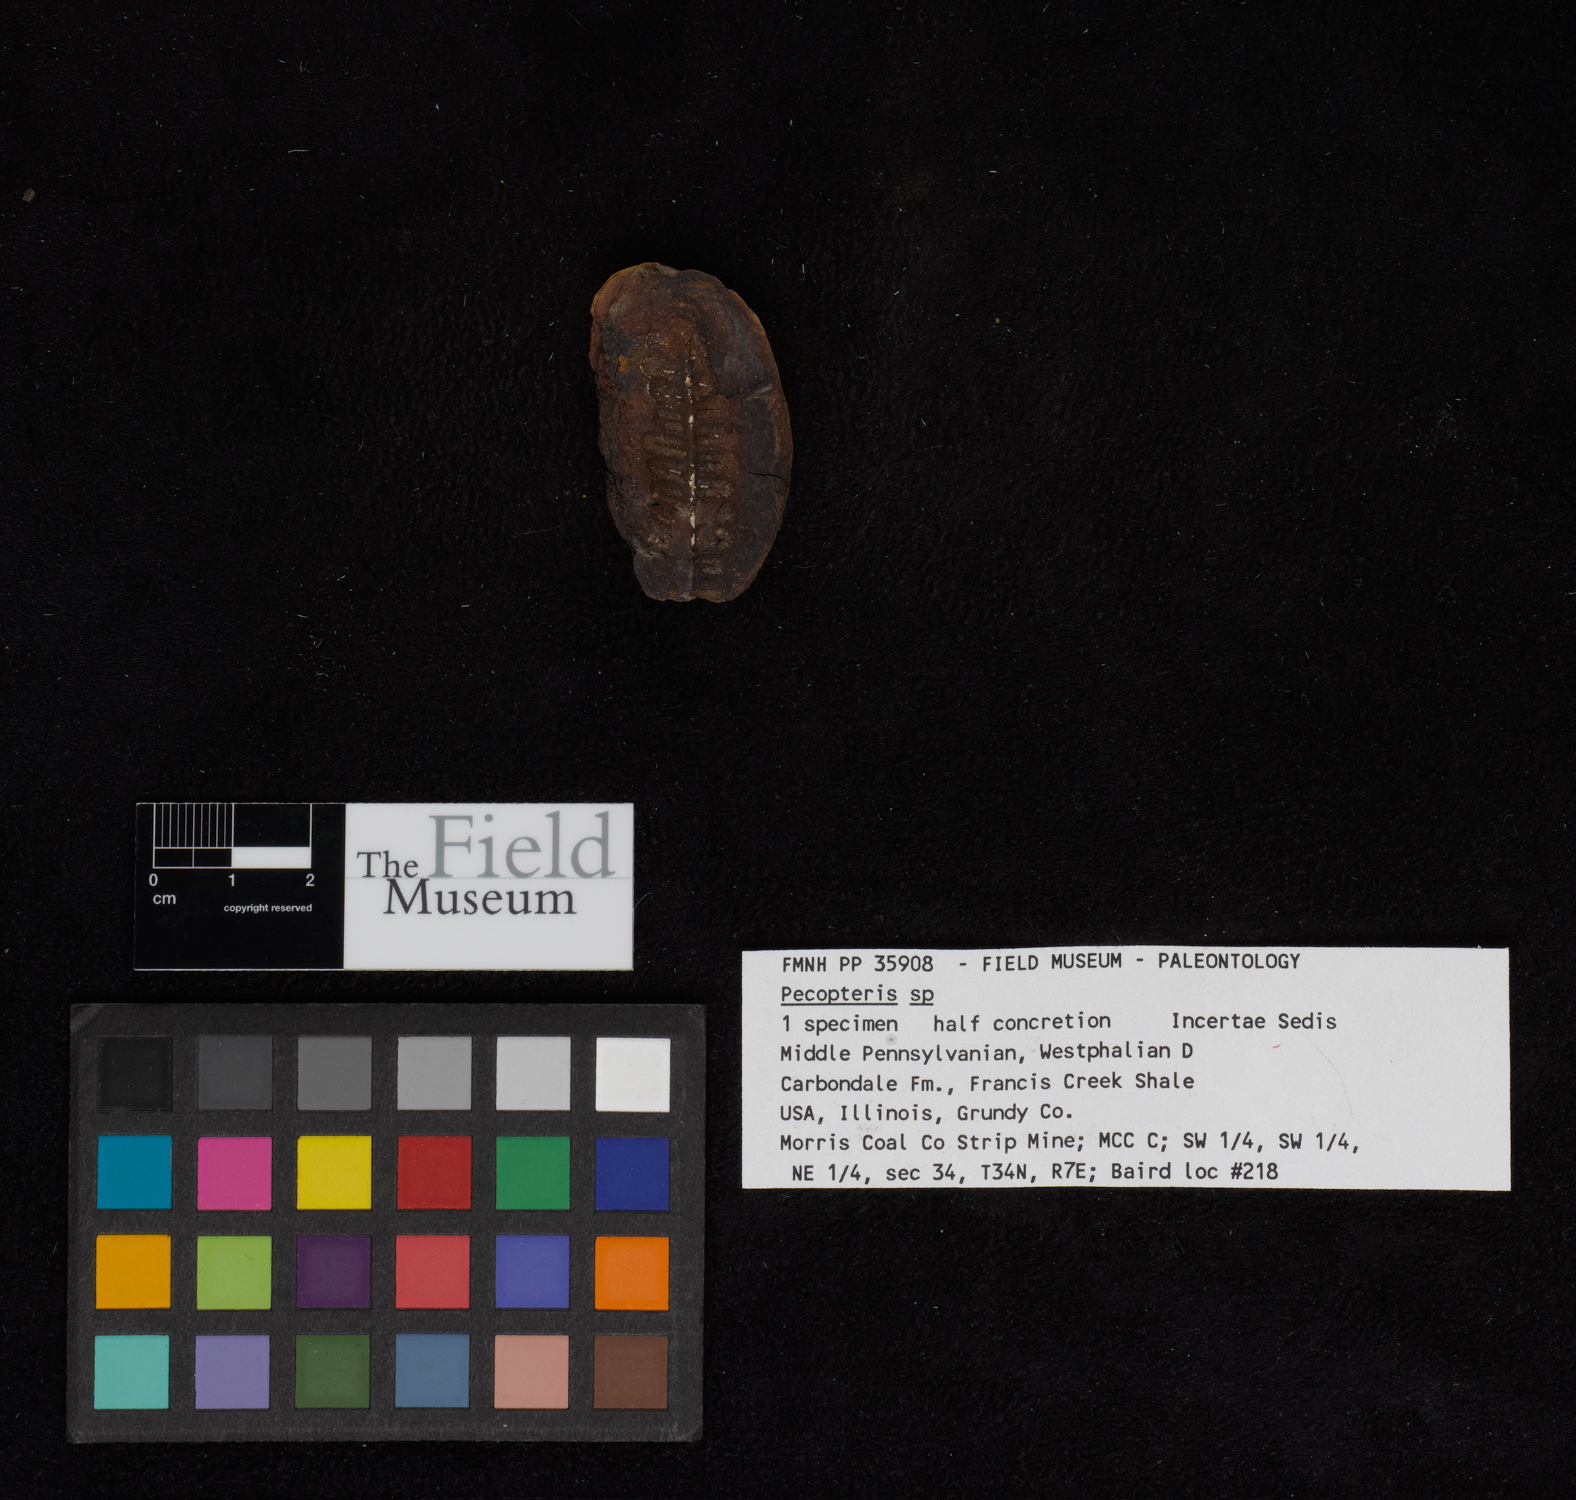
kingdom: Plantae
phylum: Tracheophyta
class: Polypodiopsida
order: Marattiales
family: Asterothecaceae
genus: Pecopteris
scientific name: Pecopteris
